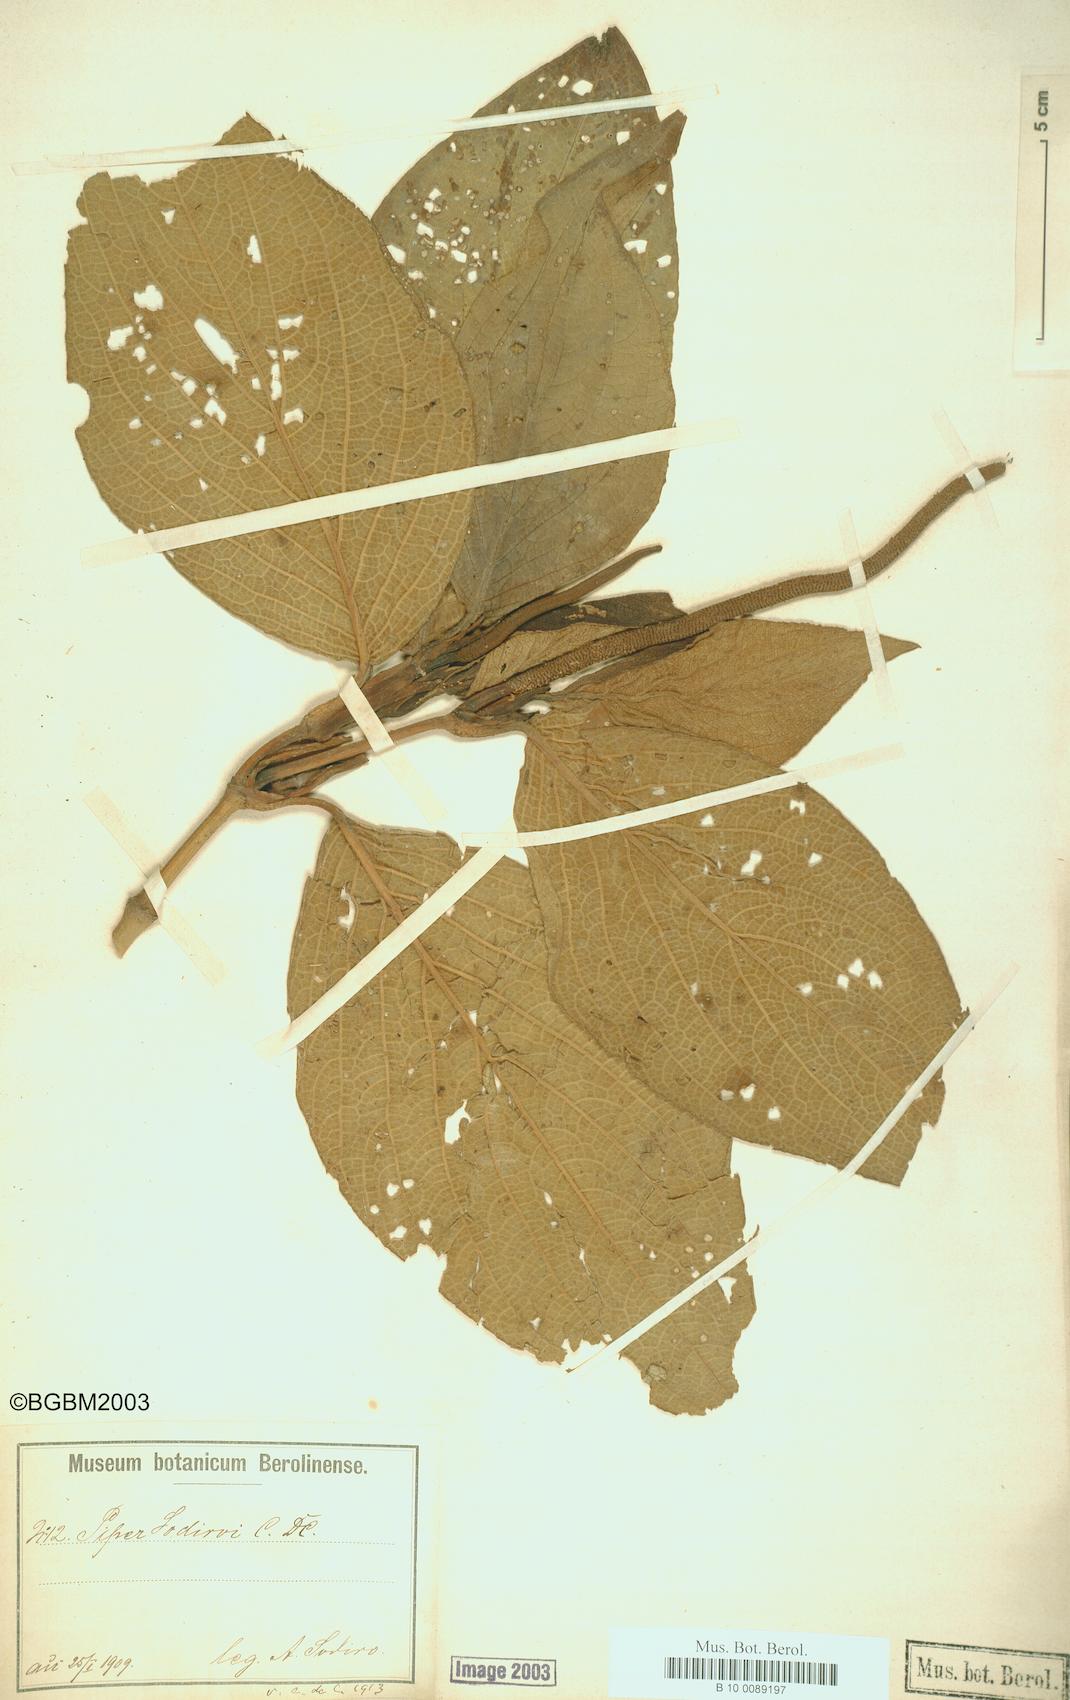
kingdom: Plantae
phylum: Tracheophyta
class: Magnoliopsida
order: Piperales
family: Piperaceae
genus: Piper
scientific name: Piper sodiroi
